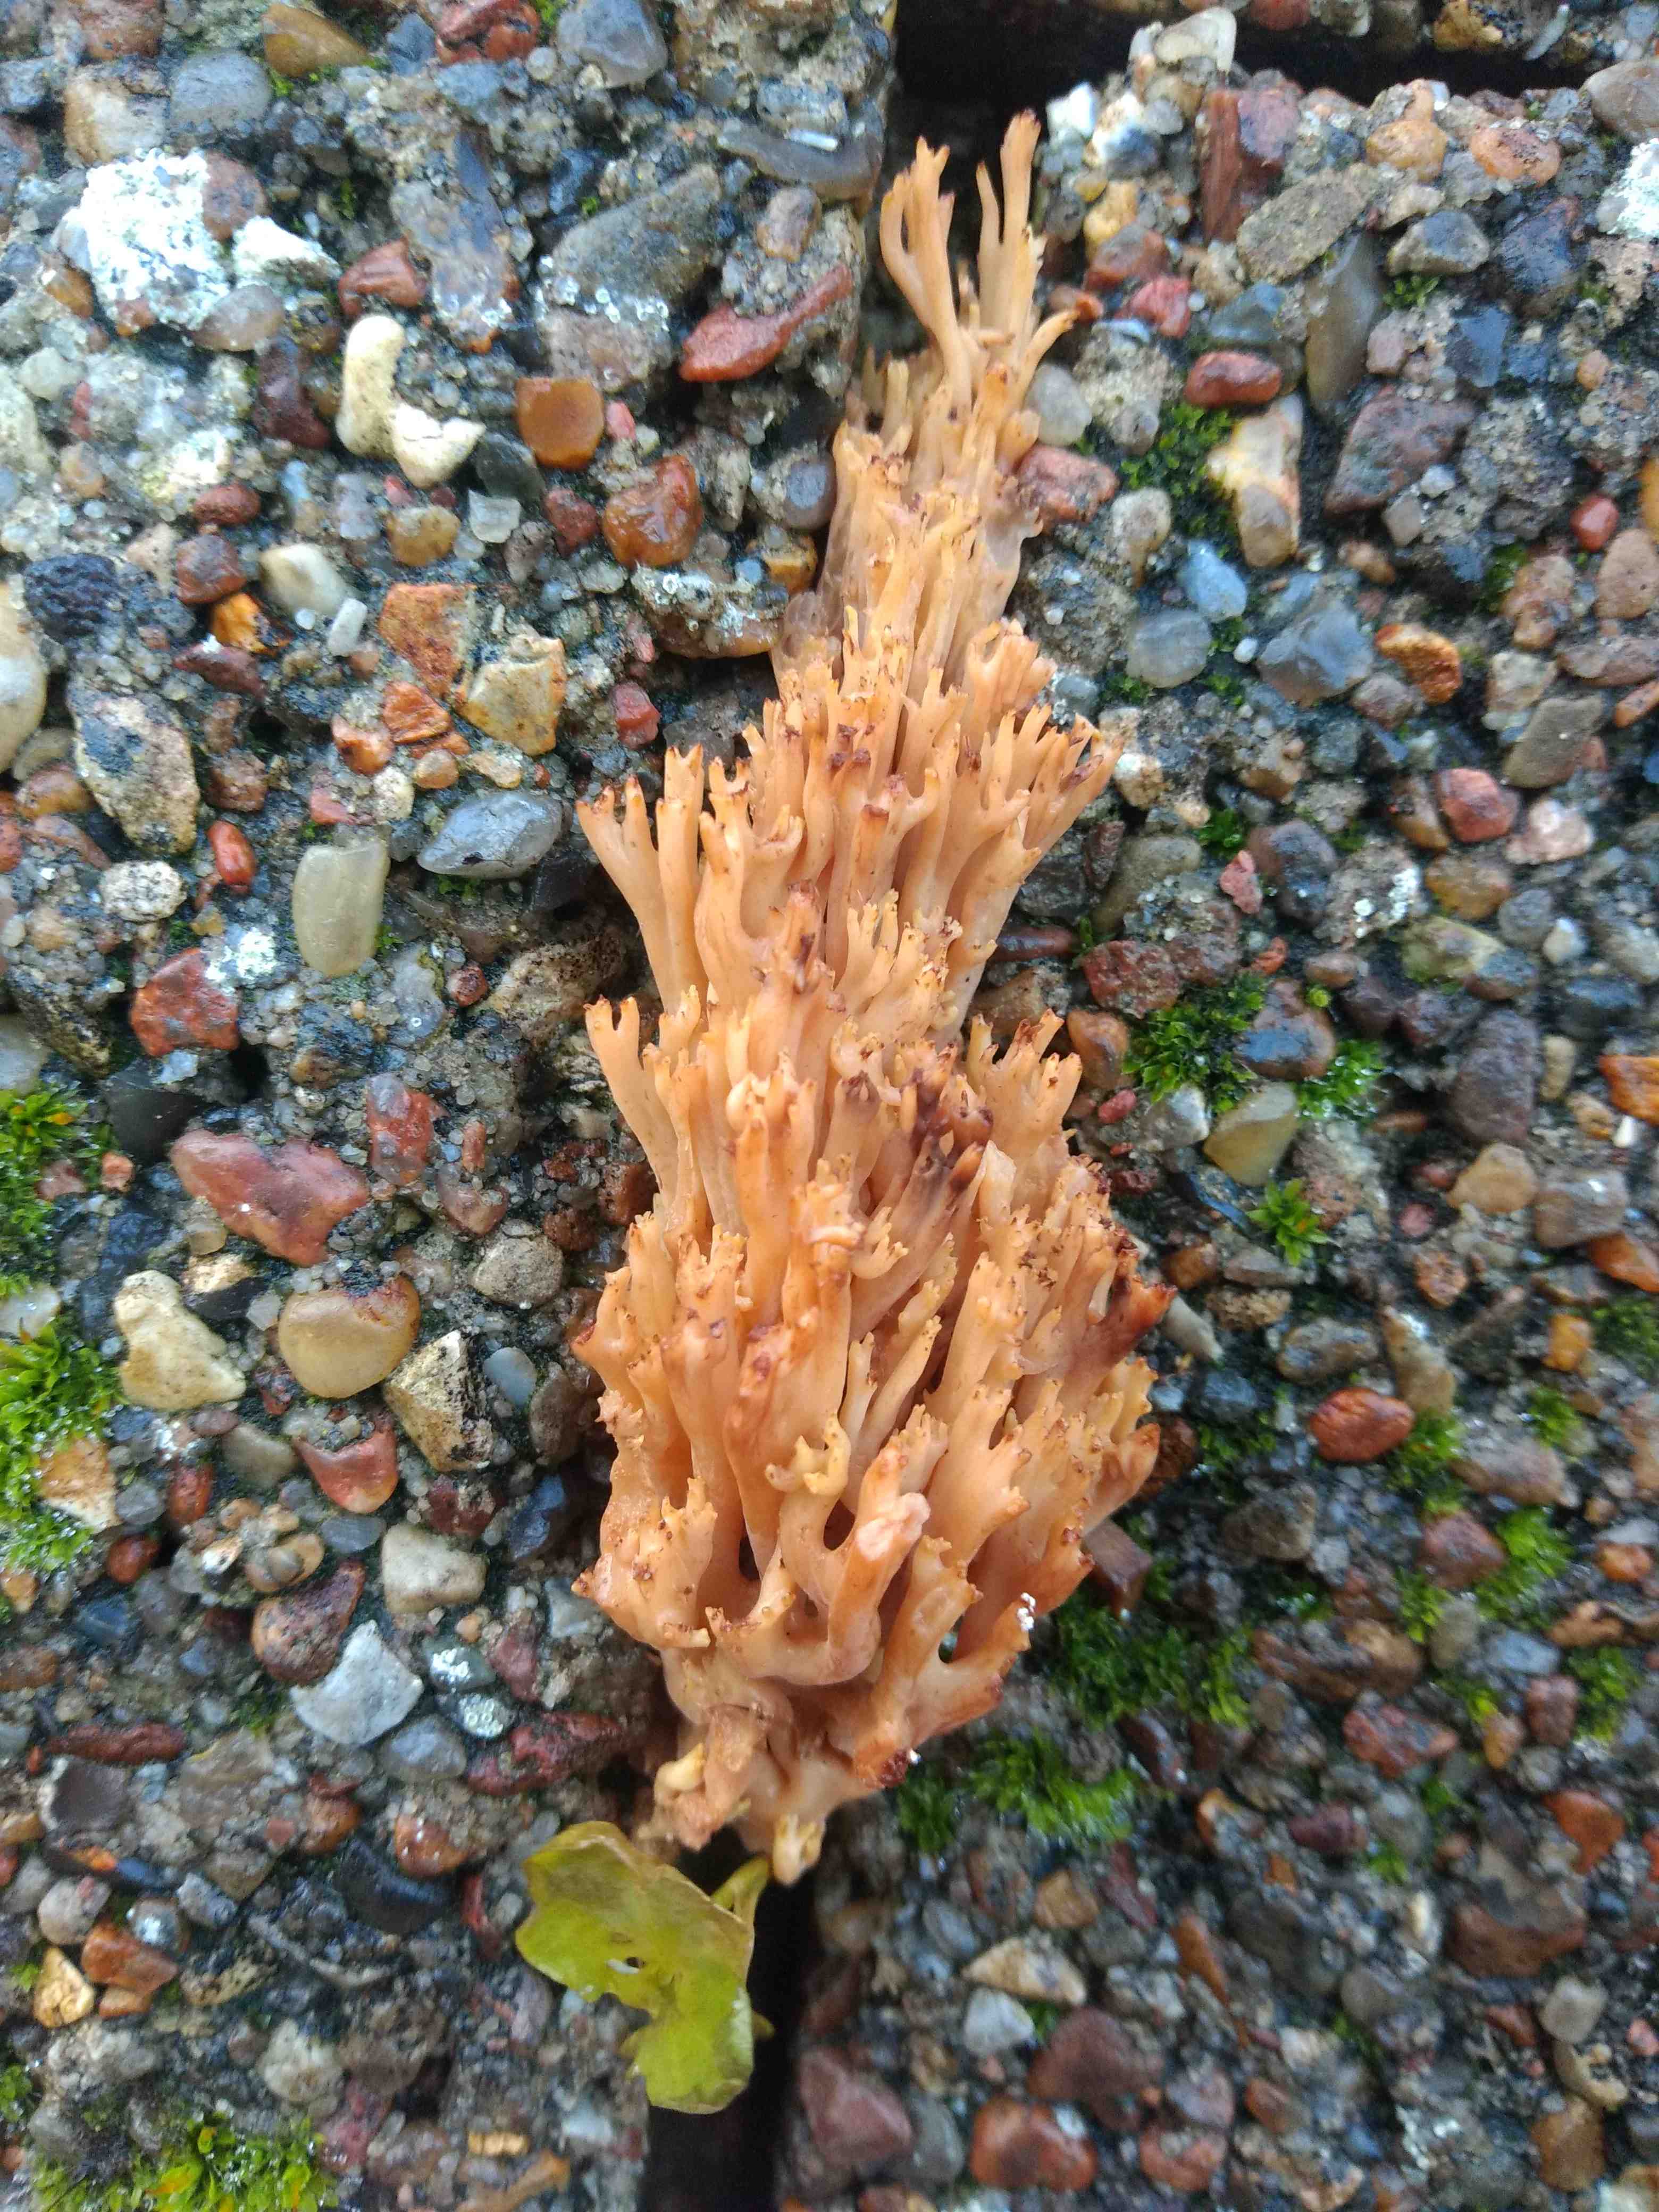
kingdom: Fungi
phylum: Basidiomycota
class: Agaricomycetes
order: Gomphales
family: Gomphaceae
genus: Ramaria
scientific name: Ramaria stricta
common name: rank koralsvamp
